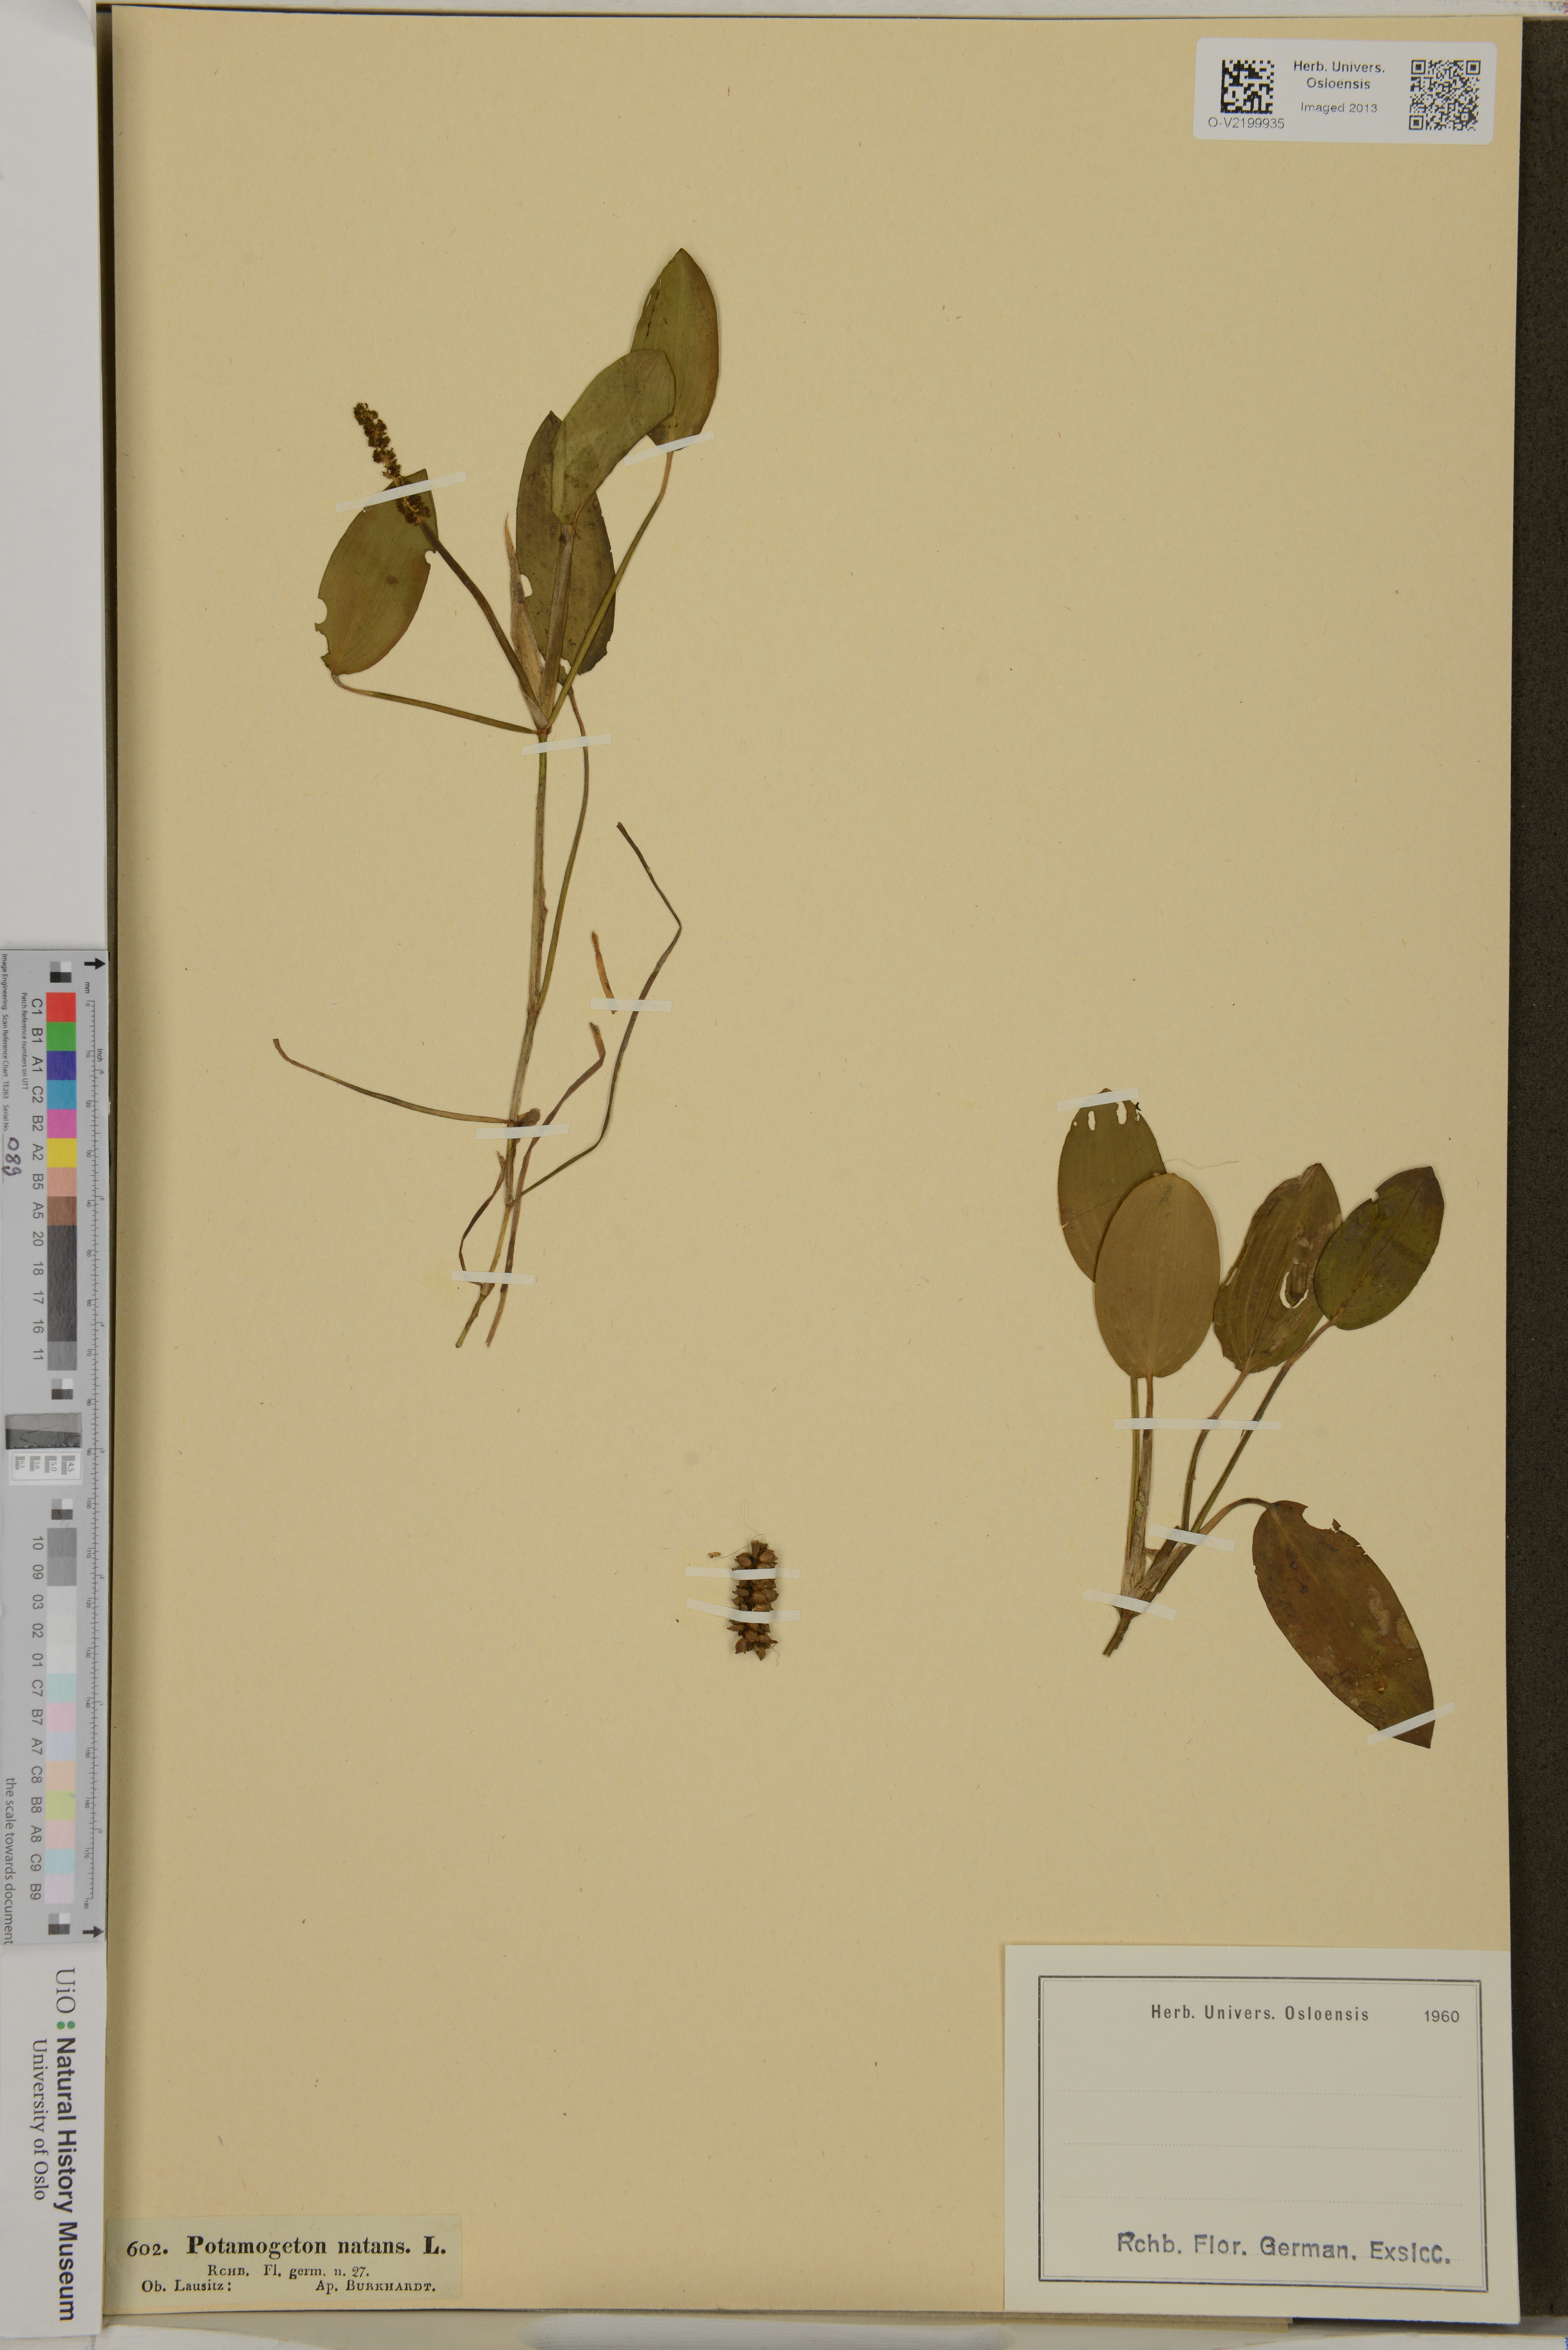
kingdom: Plantae
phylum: Tracheophyta
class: Liliopsida
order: Alismatales
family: Potamogetonaceae
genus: Potamogeton
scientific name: Potamogeton natans
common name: Broad-leaved pondweed
